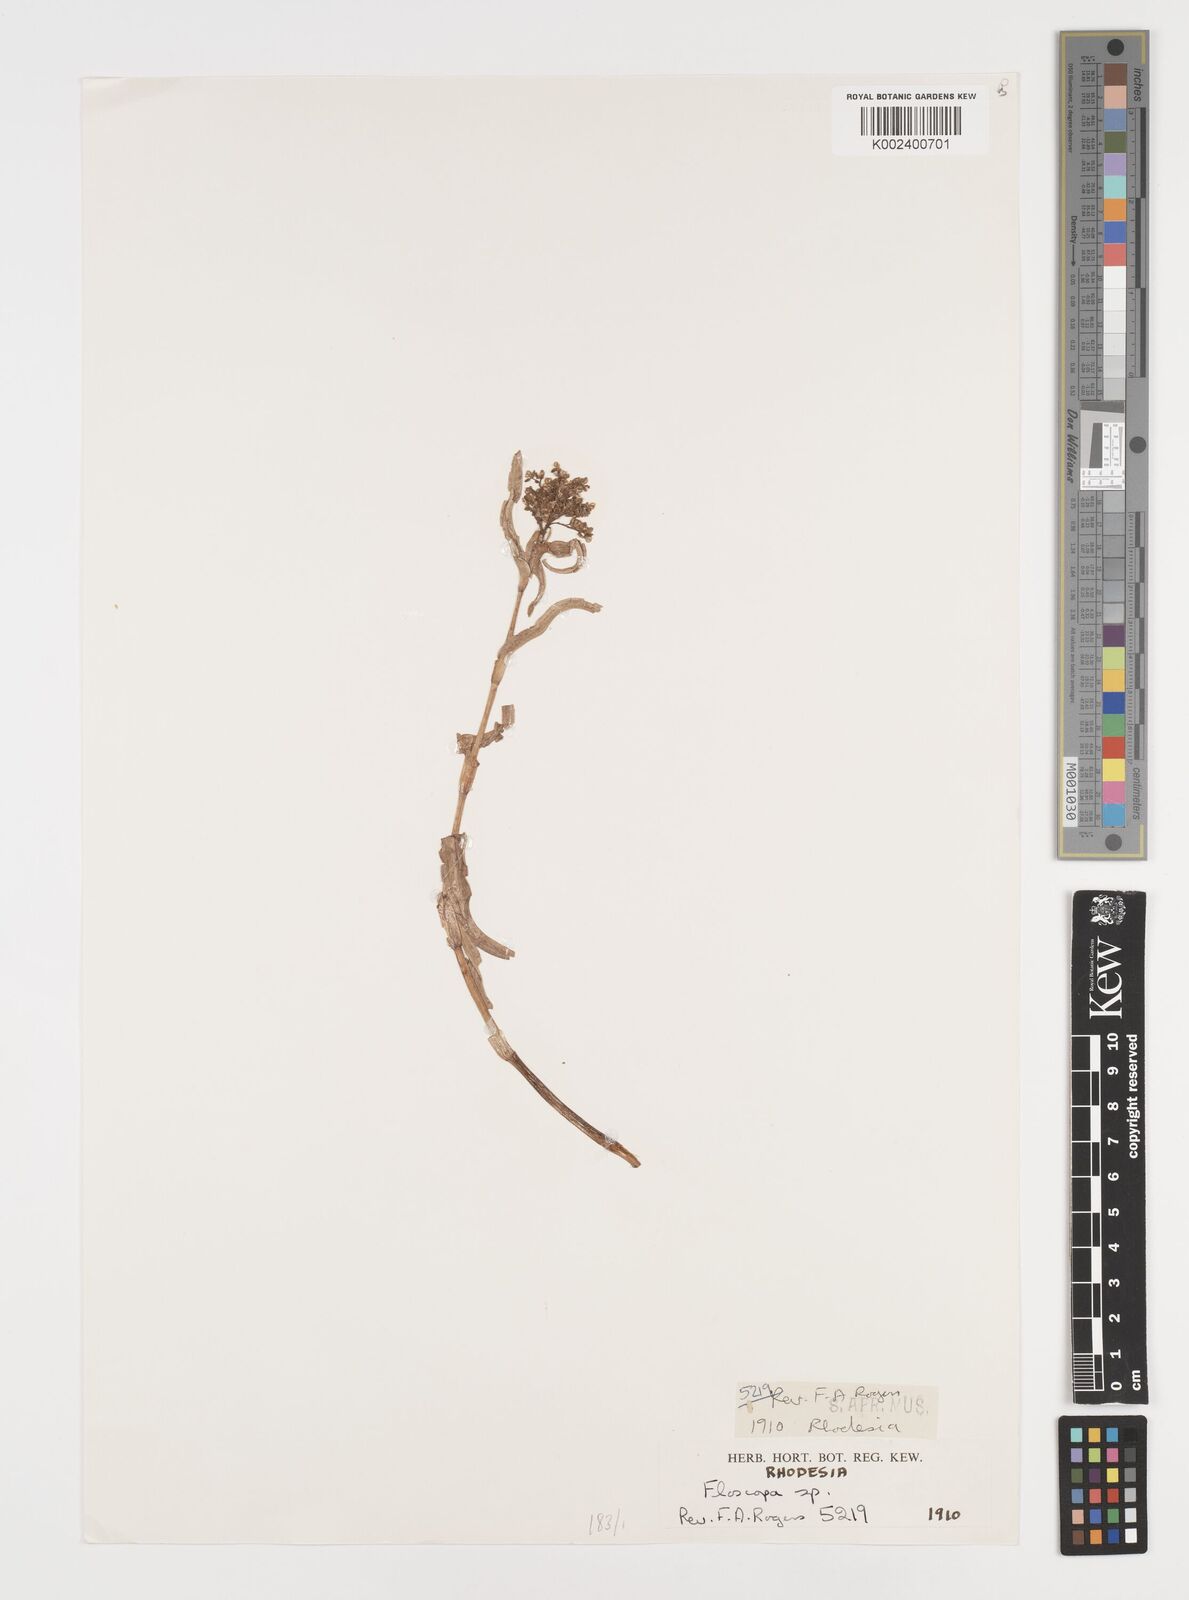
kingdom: Plantae
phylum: Tracheophyta
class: Liliopsida
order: Commelinales
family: Commelinaceae
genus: Floscopa
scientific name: Floscopa
